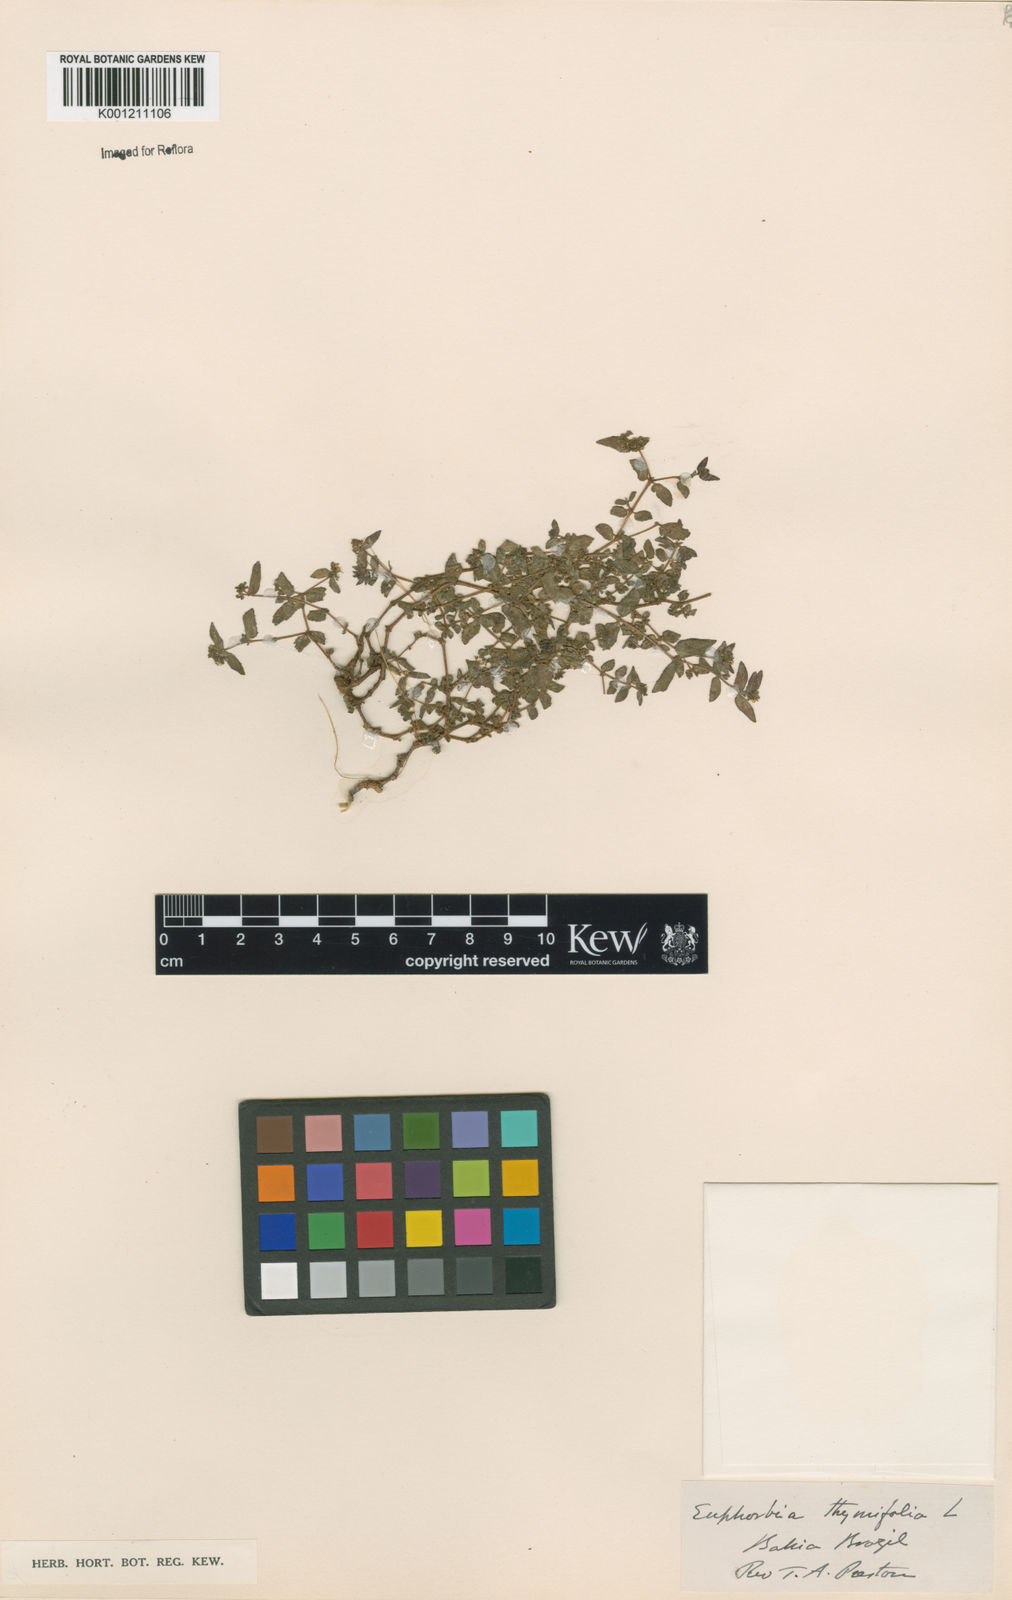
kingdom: Plantae
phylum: Tracheophyta
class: Magnoliopsida
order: Malpighiales
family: Euphorbiaceae
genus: Euphorbia
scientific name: Euphorbia thymifolia
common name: Gulf sandmat
